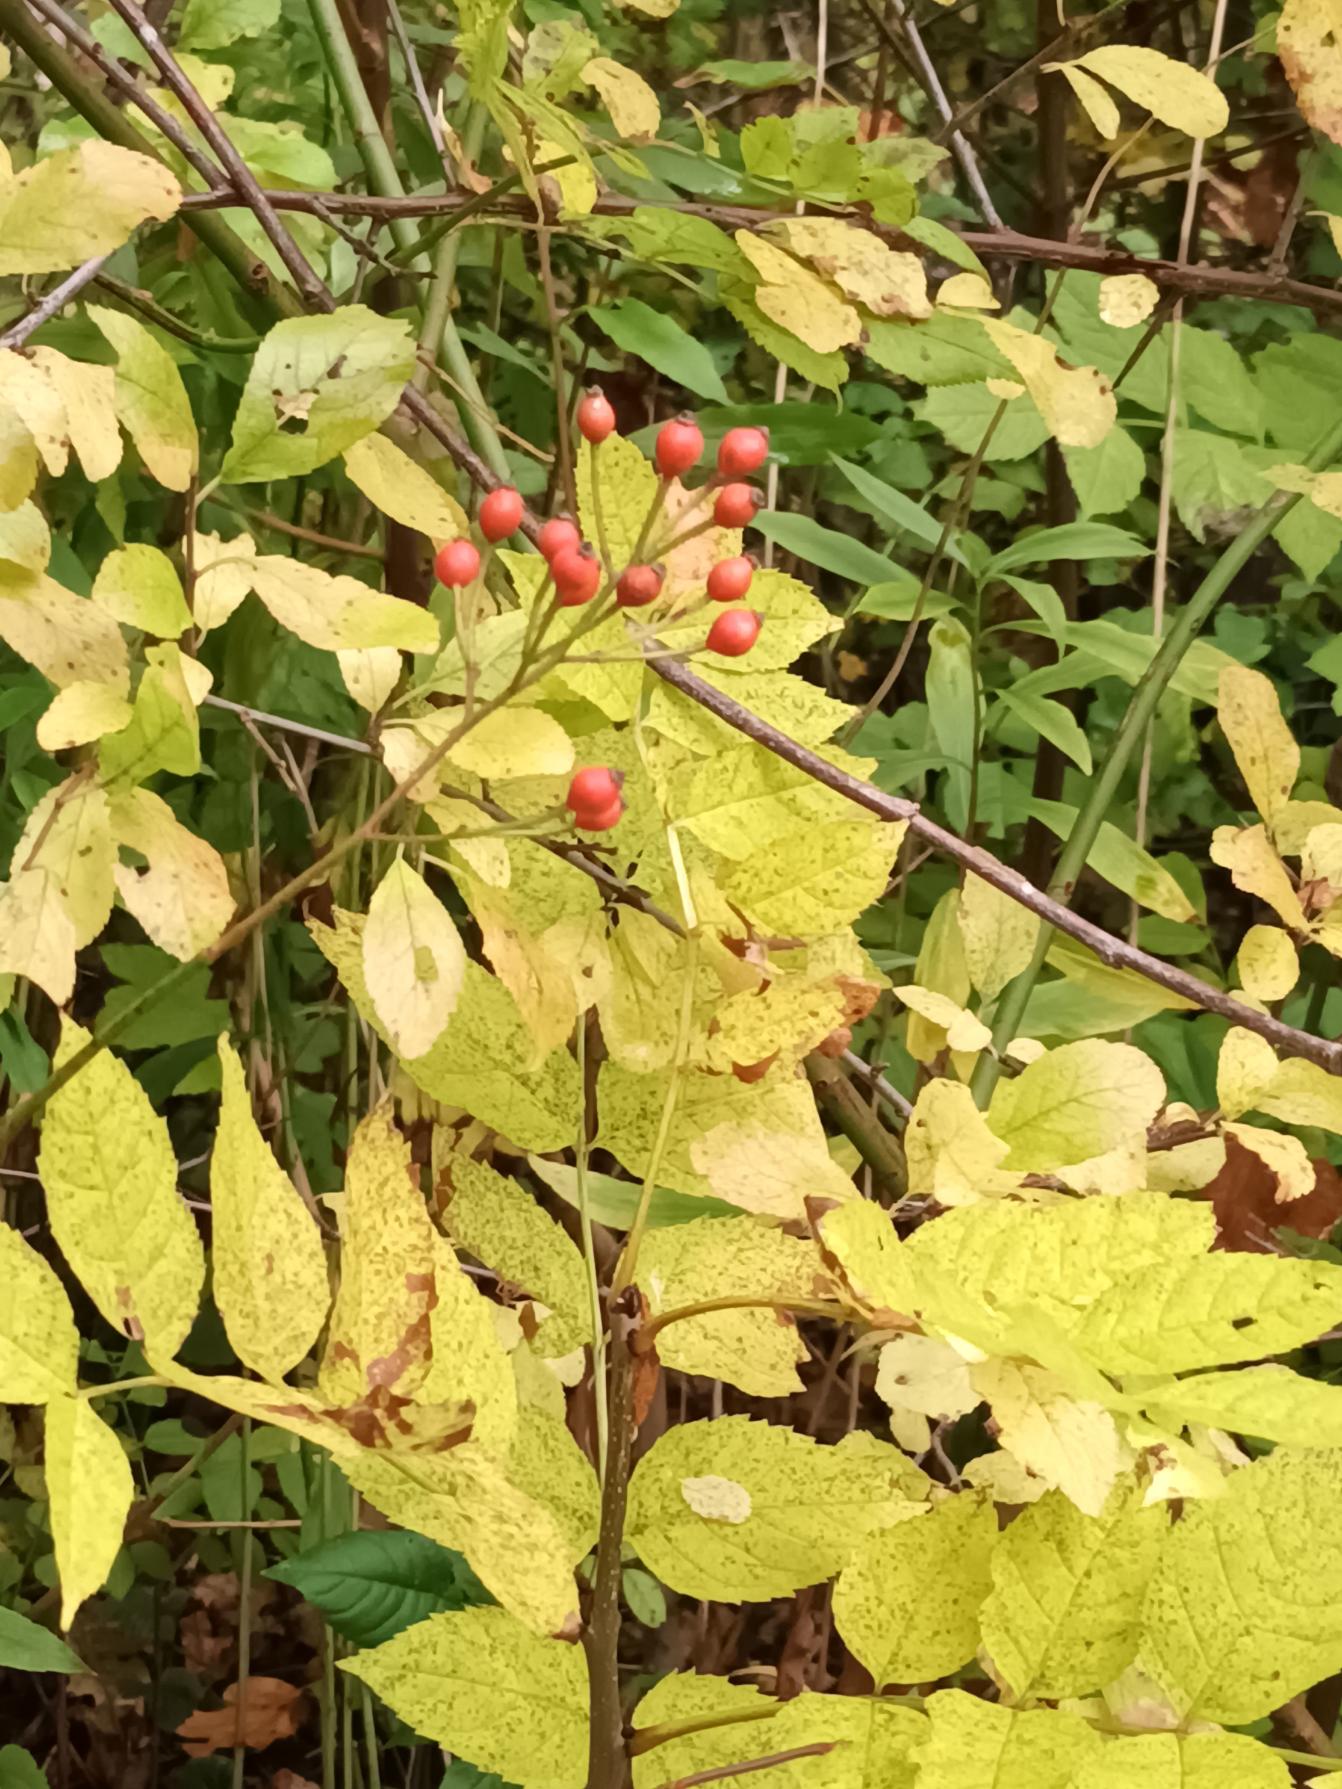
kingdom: Plantae
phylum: Tracheophyta
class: Magnoliopsida
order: Rosales
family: Rosaceae
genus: Rosa
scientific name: Rosa multiflora
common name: Mangeblomstret rose
